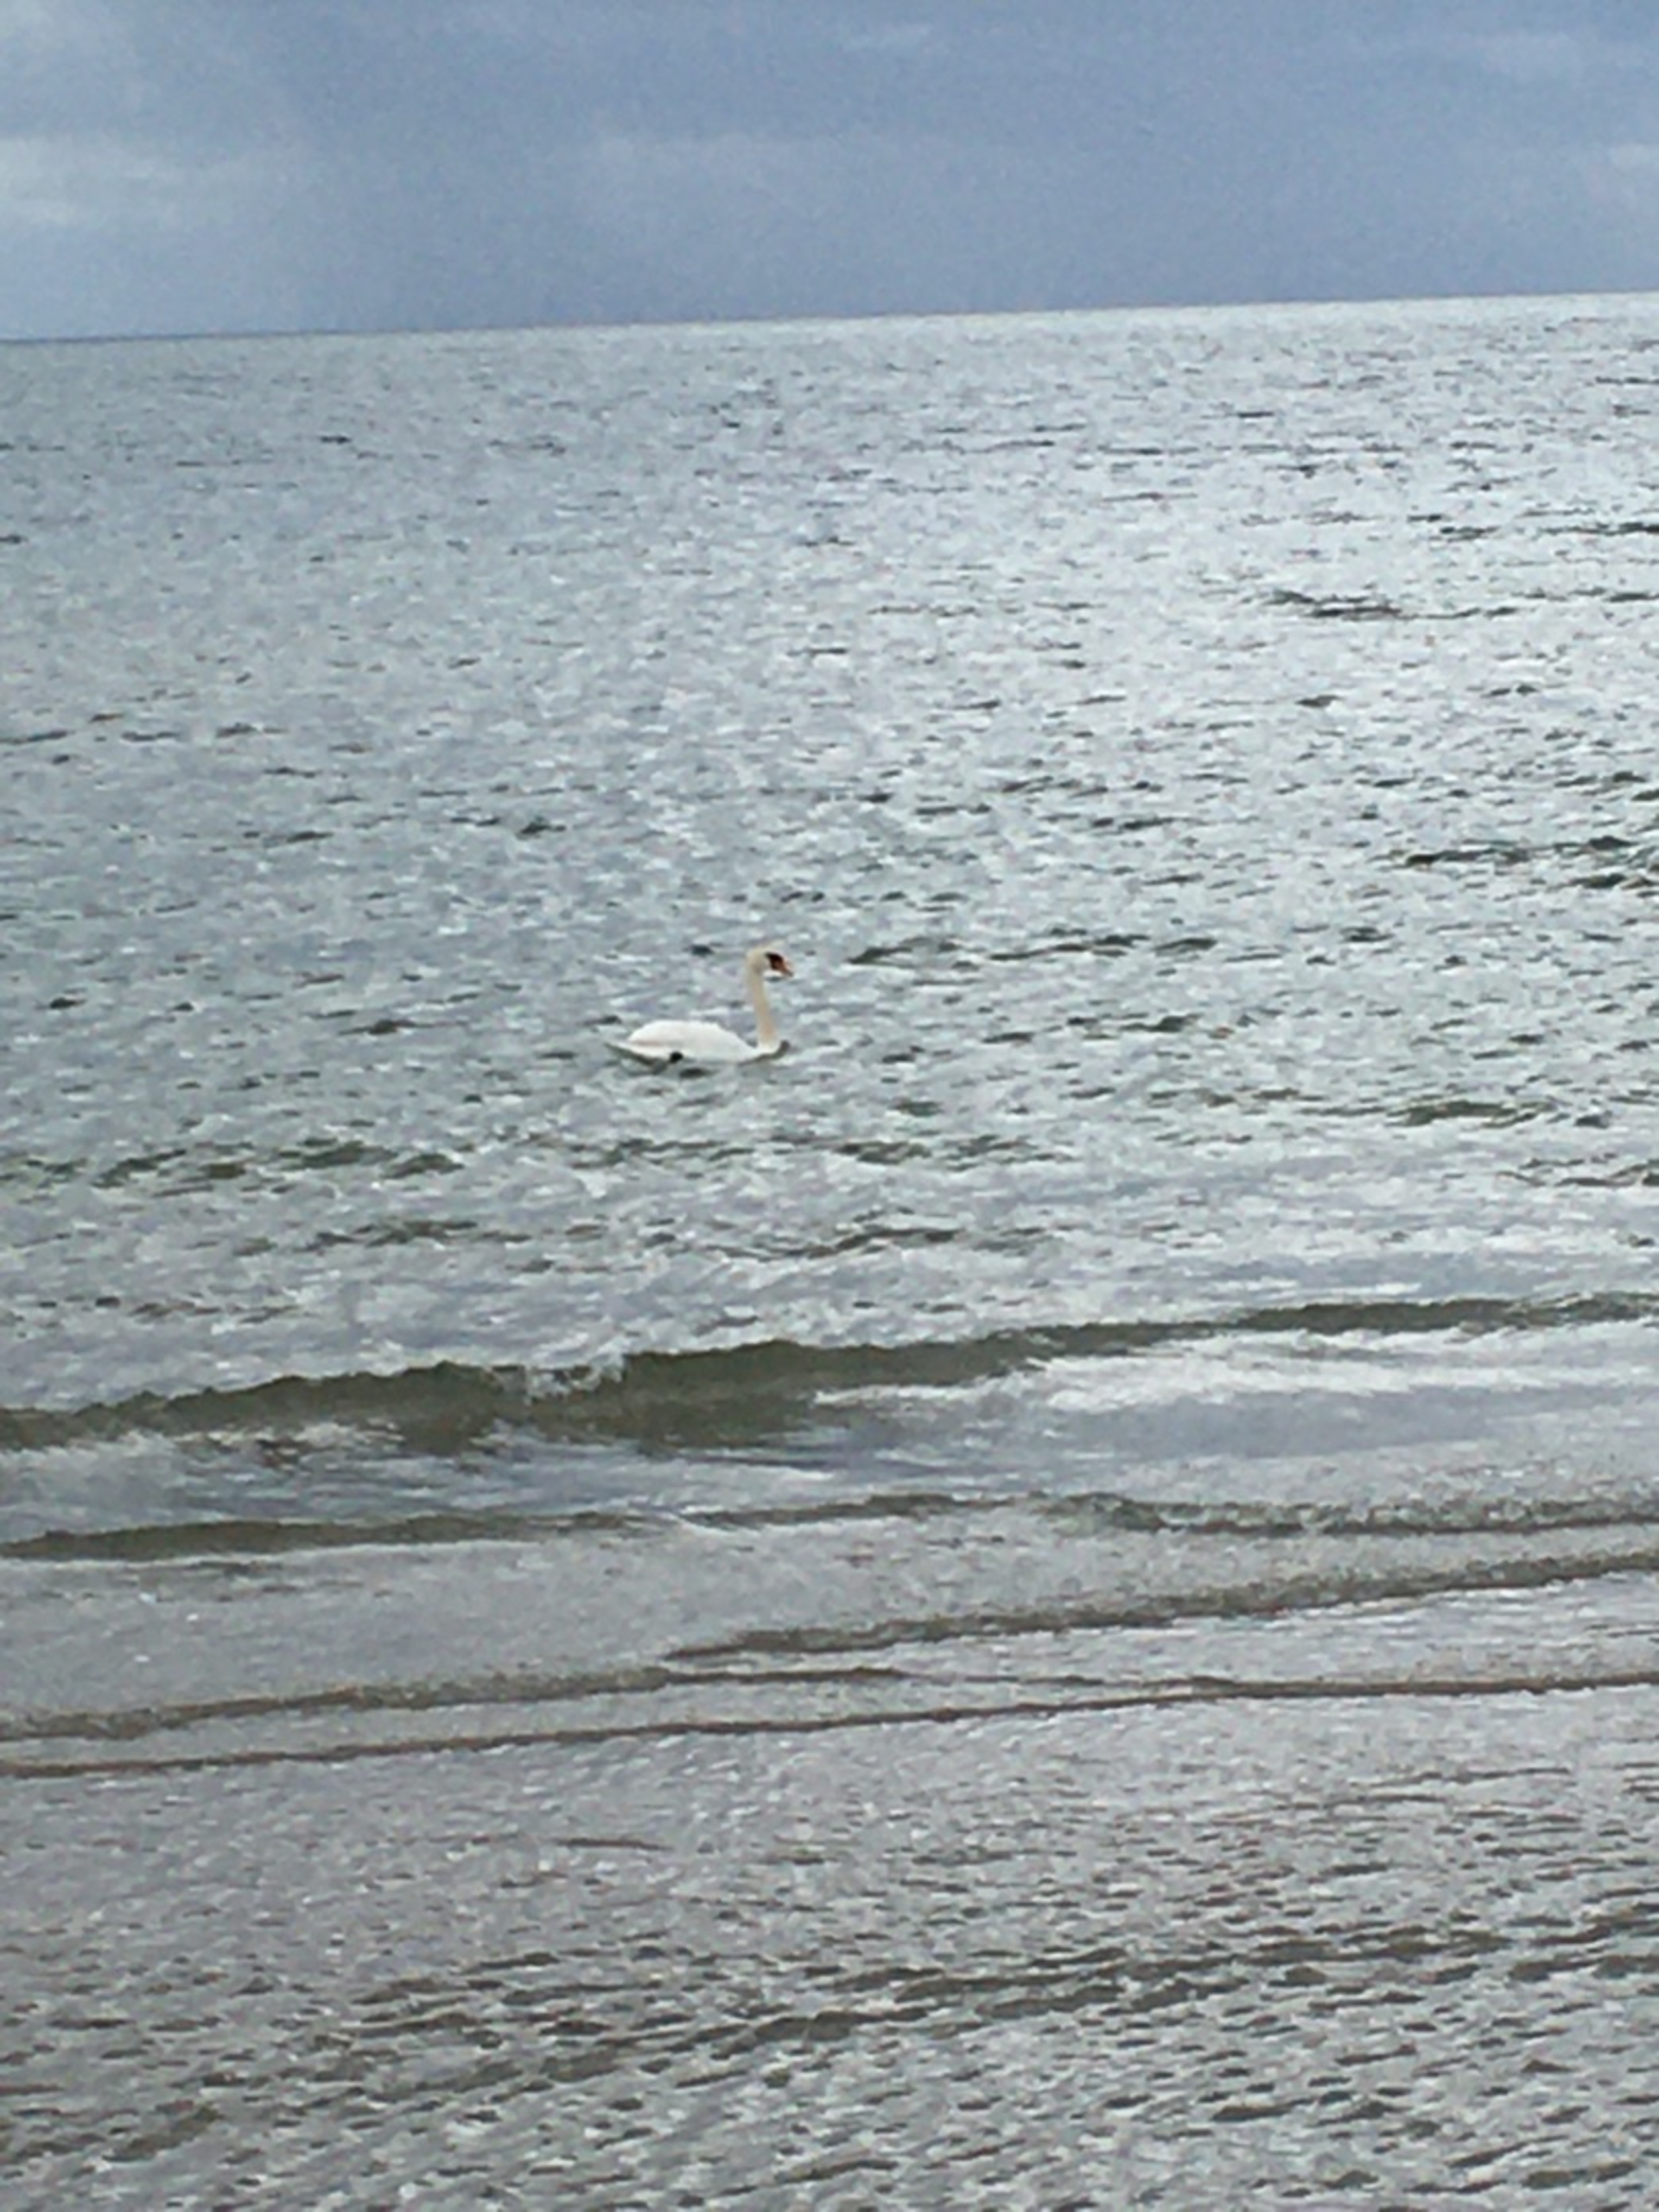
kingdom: Animalia
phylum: Chordata
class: Aves
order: Anseriformes
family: Anatidae
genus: Cygnus
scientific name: Cygnus olor
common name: Knopsvane
